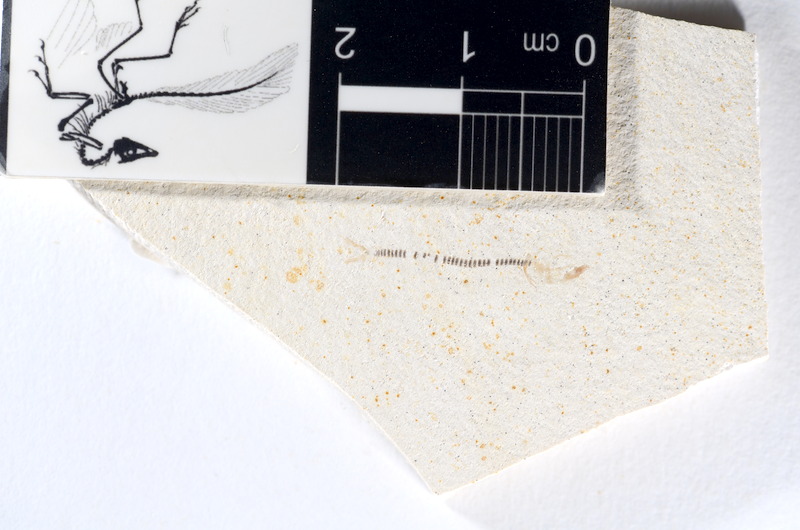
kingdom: Animalia
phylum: Chordata
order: Salmoniformes
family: Orthogonikleithridae
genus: Orthogonikleithrus
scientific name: Orthogonikleithrus hoelli
